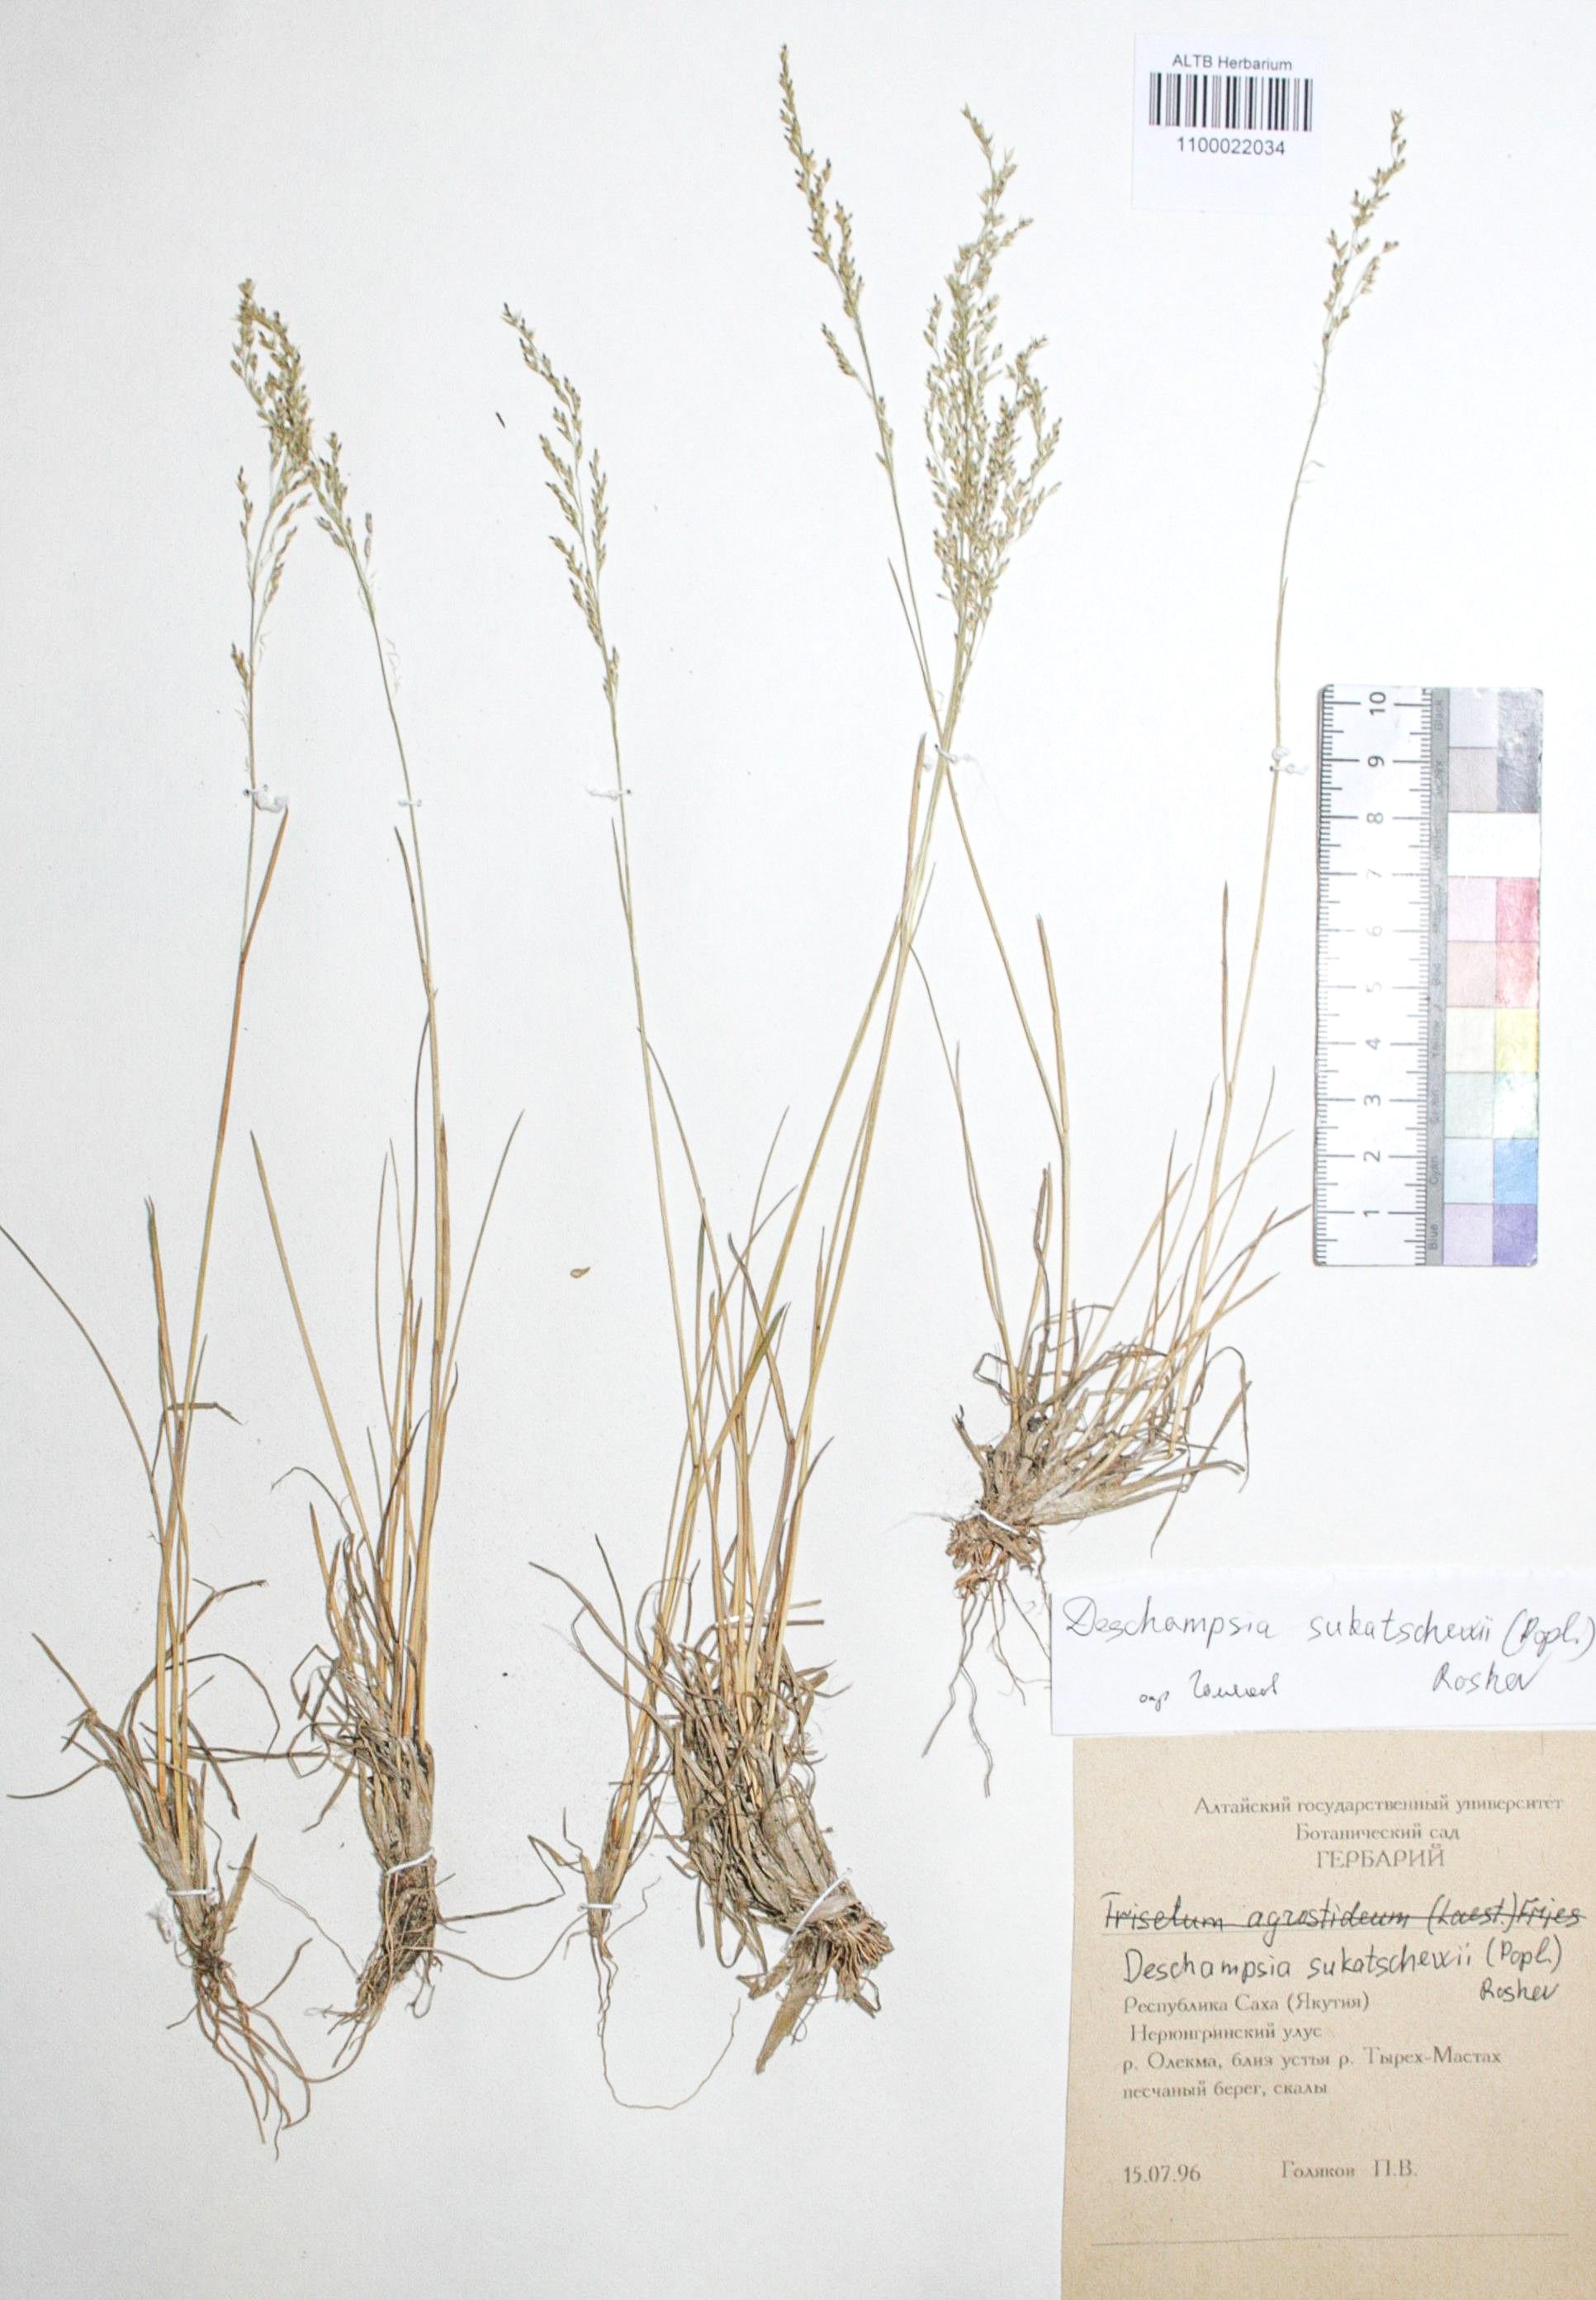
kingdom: Plantae
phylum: Tracheophyta
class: Liliopsida
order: Poales
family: Poaceae
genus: Deschampsia
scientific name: Deschampsia cespitosa
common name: Tufted hair-grass
